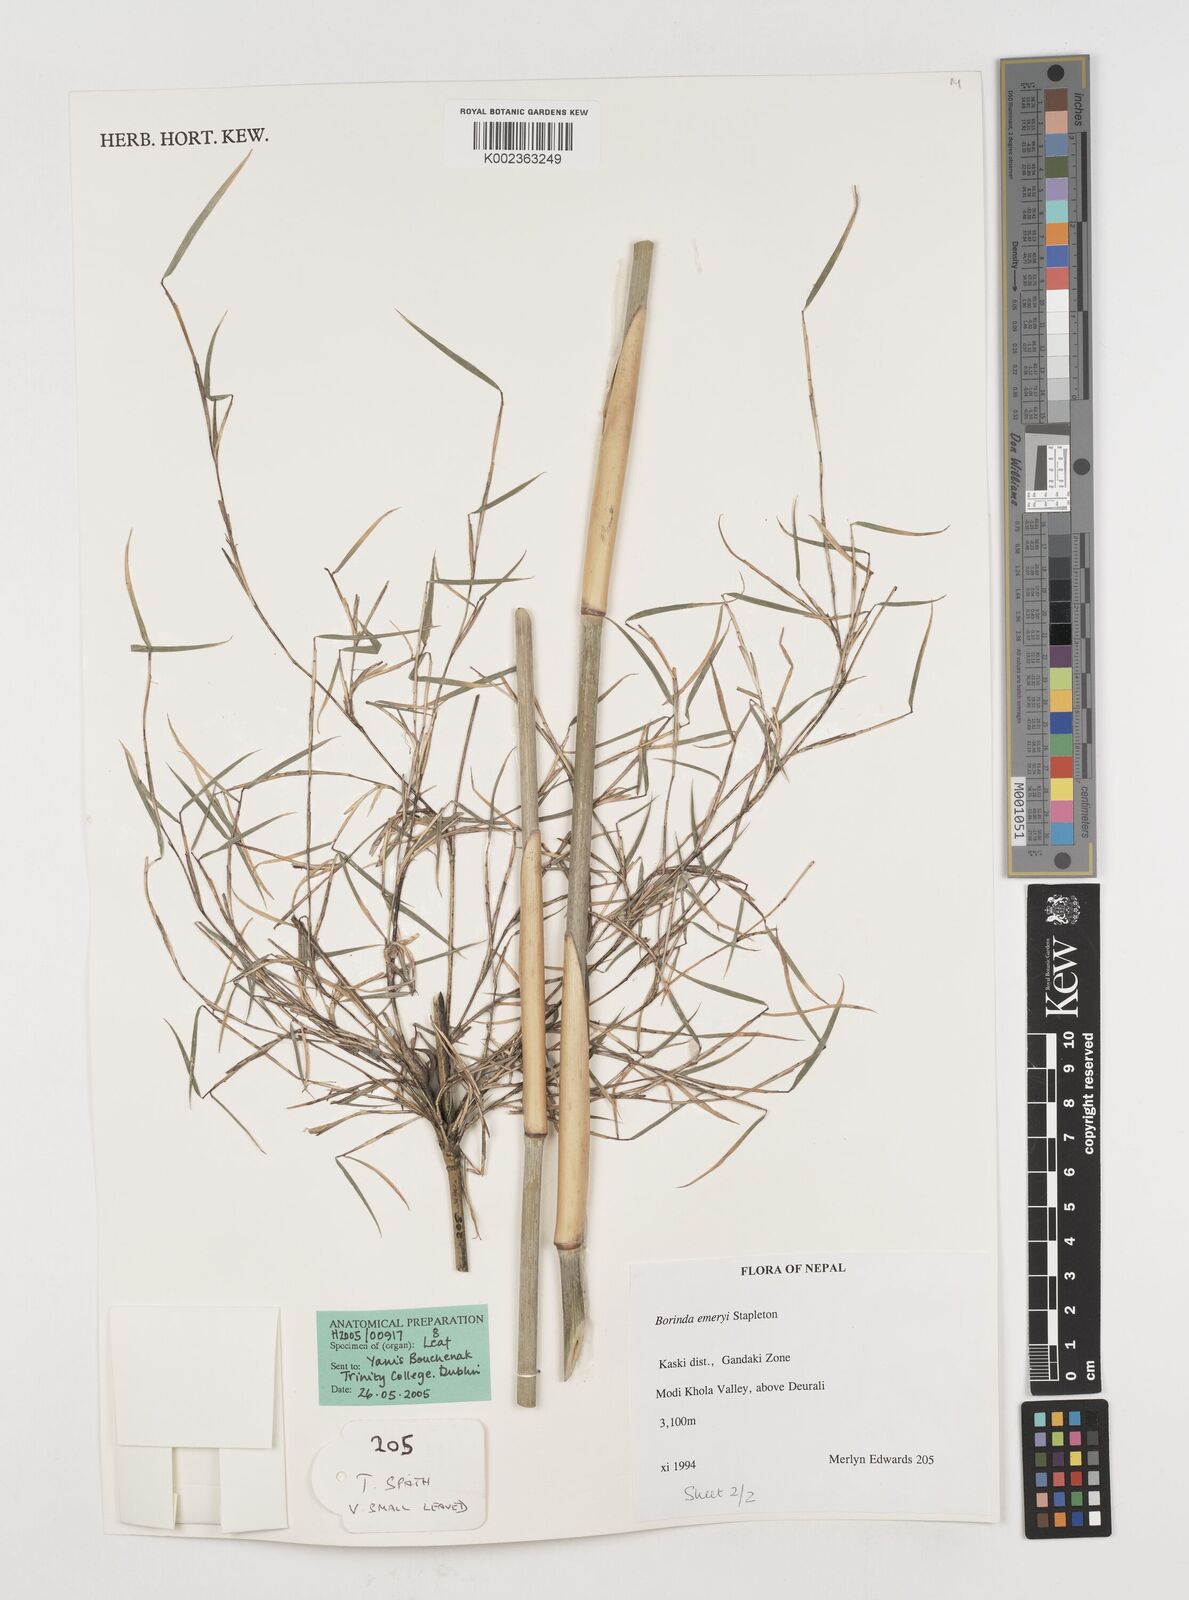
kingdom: Plantae
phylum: Tracheophyta
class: Liliopsida
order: Poales
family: Poaceae
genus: Fargesia
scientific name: Fargesia
